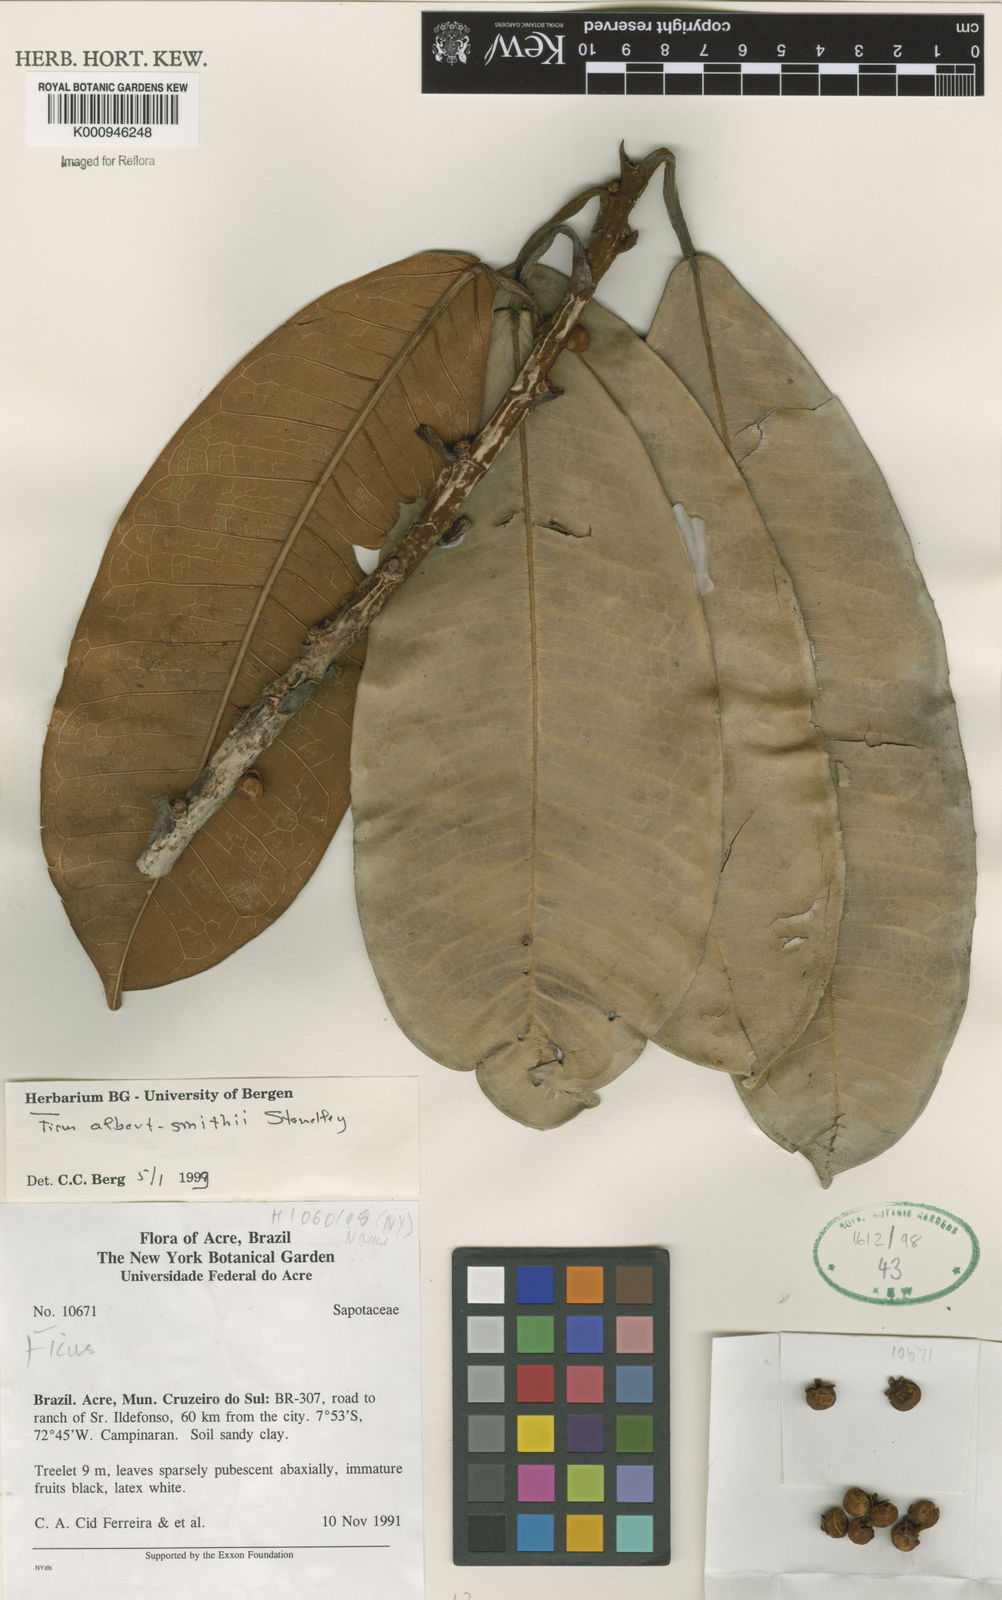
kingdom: Plantae
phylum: Tracheophyta
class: Magnoliopsida
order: Rosales
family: Moraceae
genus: Ficus
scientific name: Ficus albert-smithii
